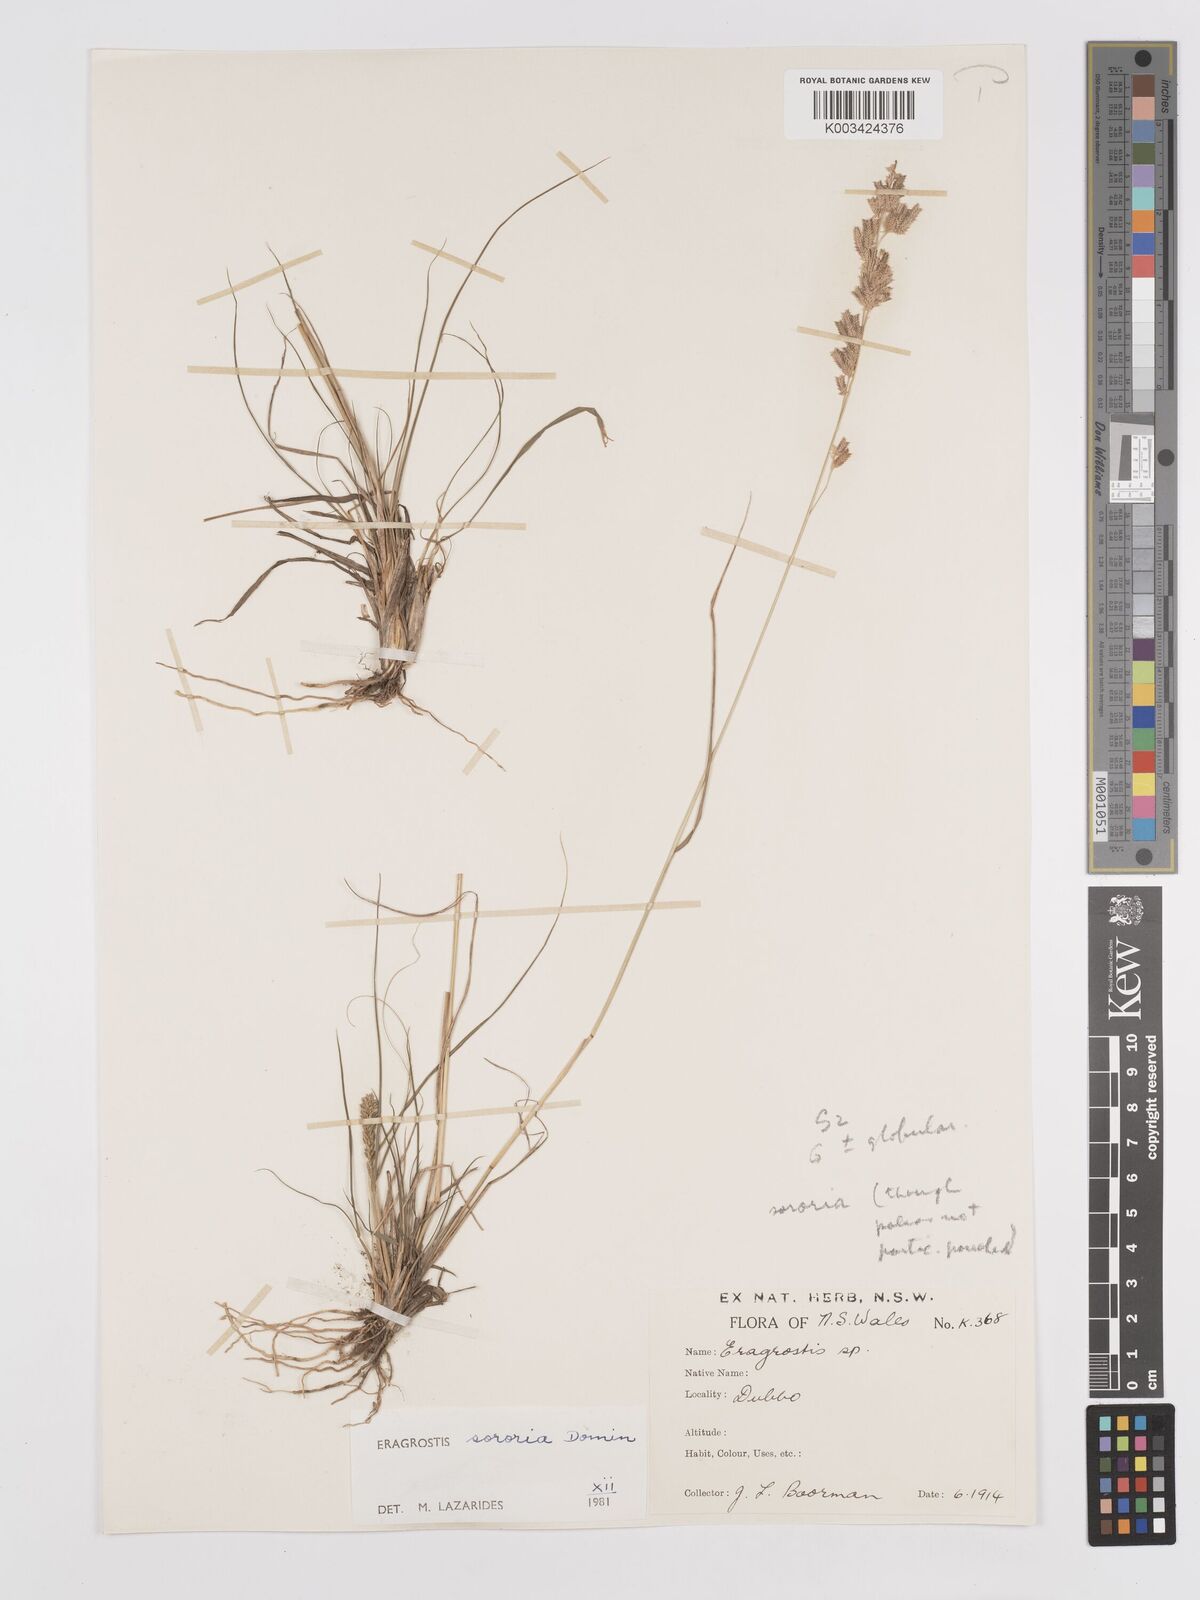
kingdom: Plantae
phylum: Tracheophyta
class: Liliopsida
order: Poales
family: Poaceae
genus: Eragrostis
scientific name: Eragrostis sororia
